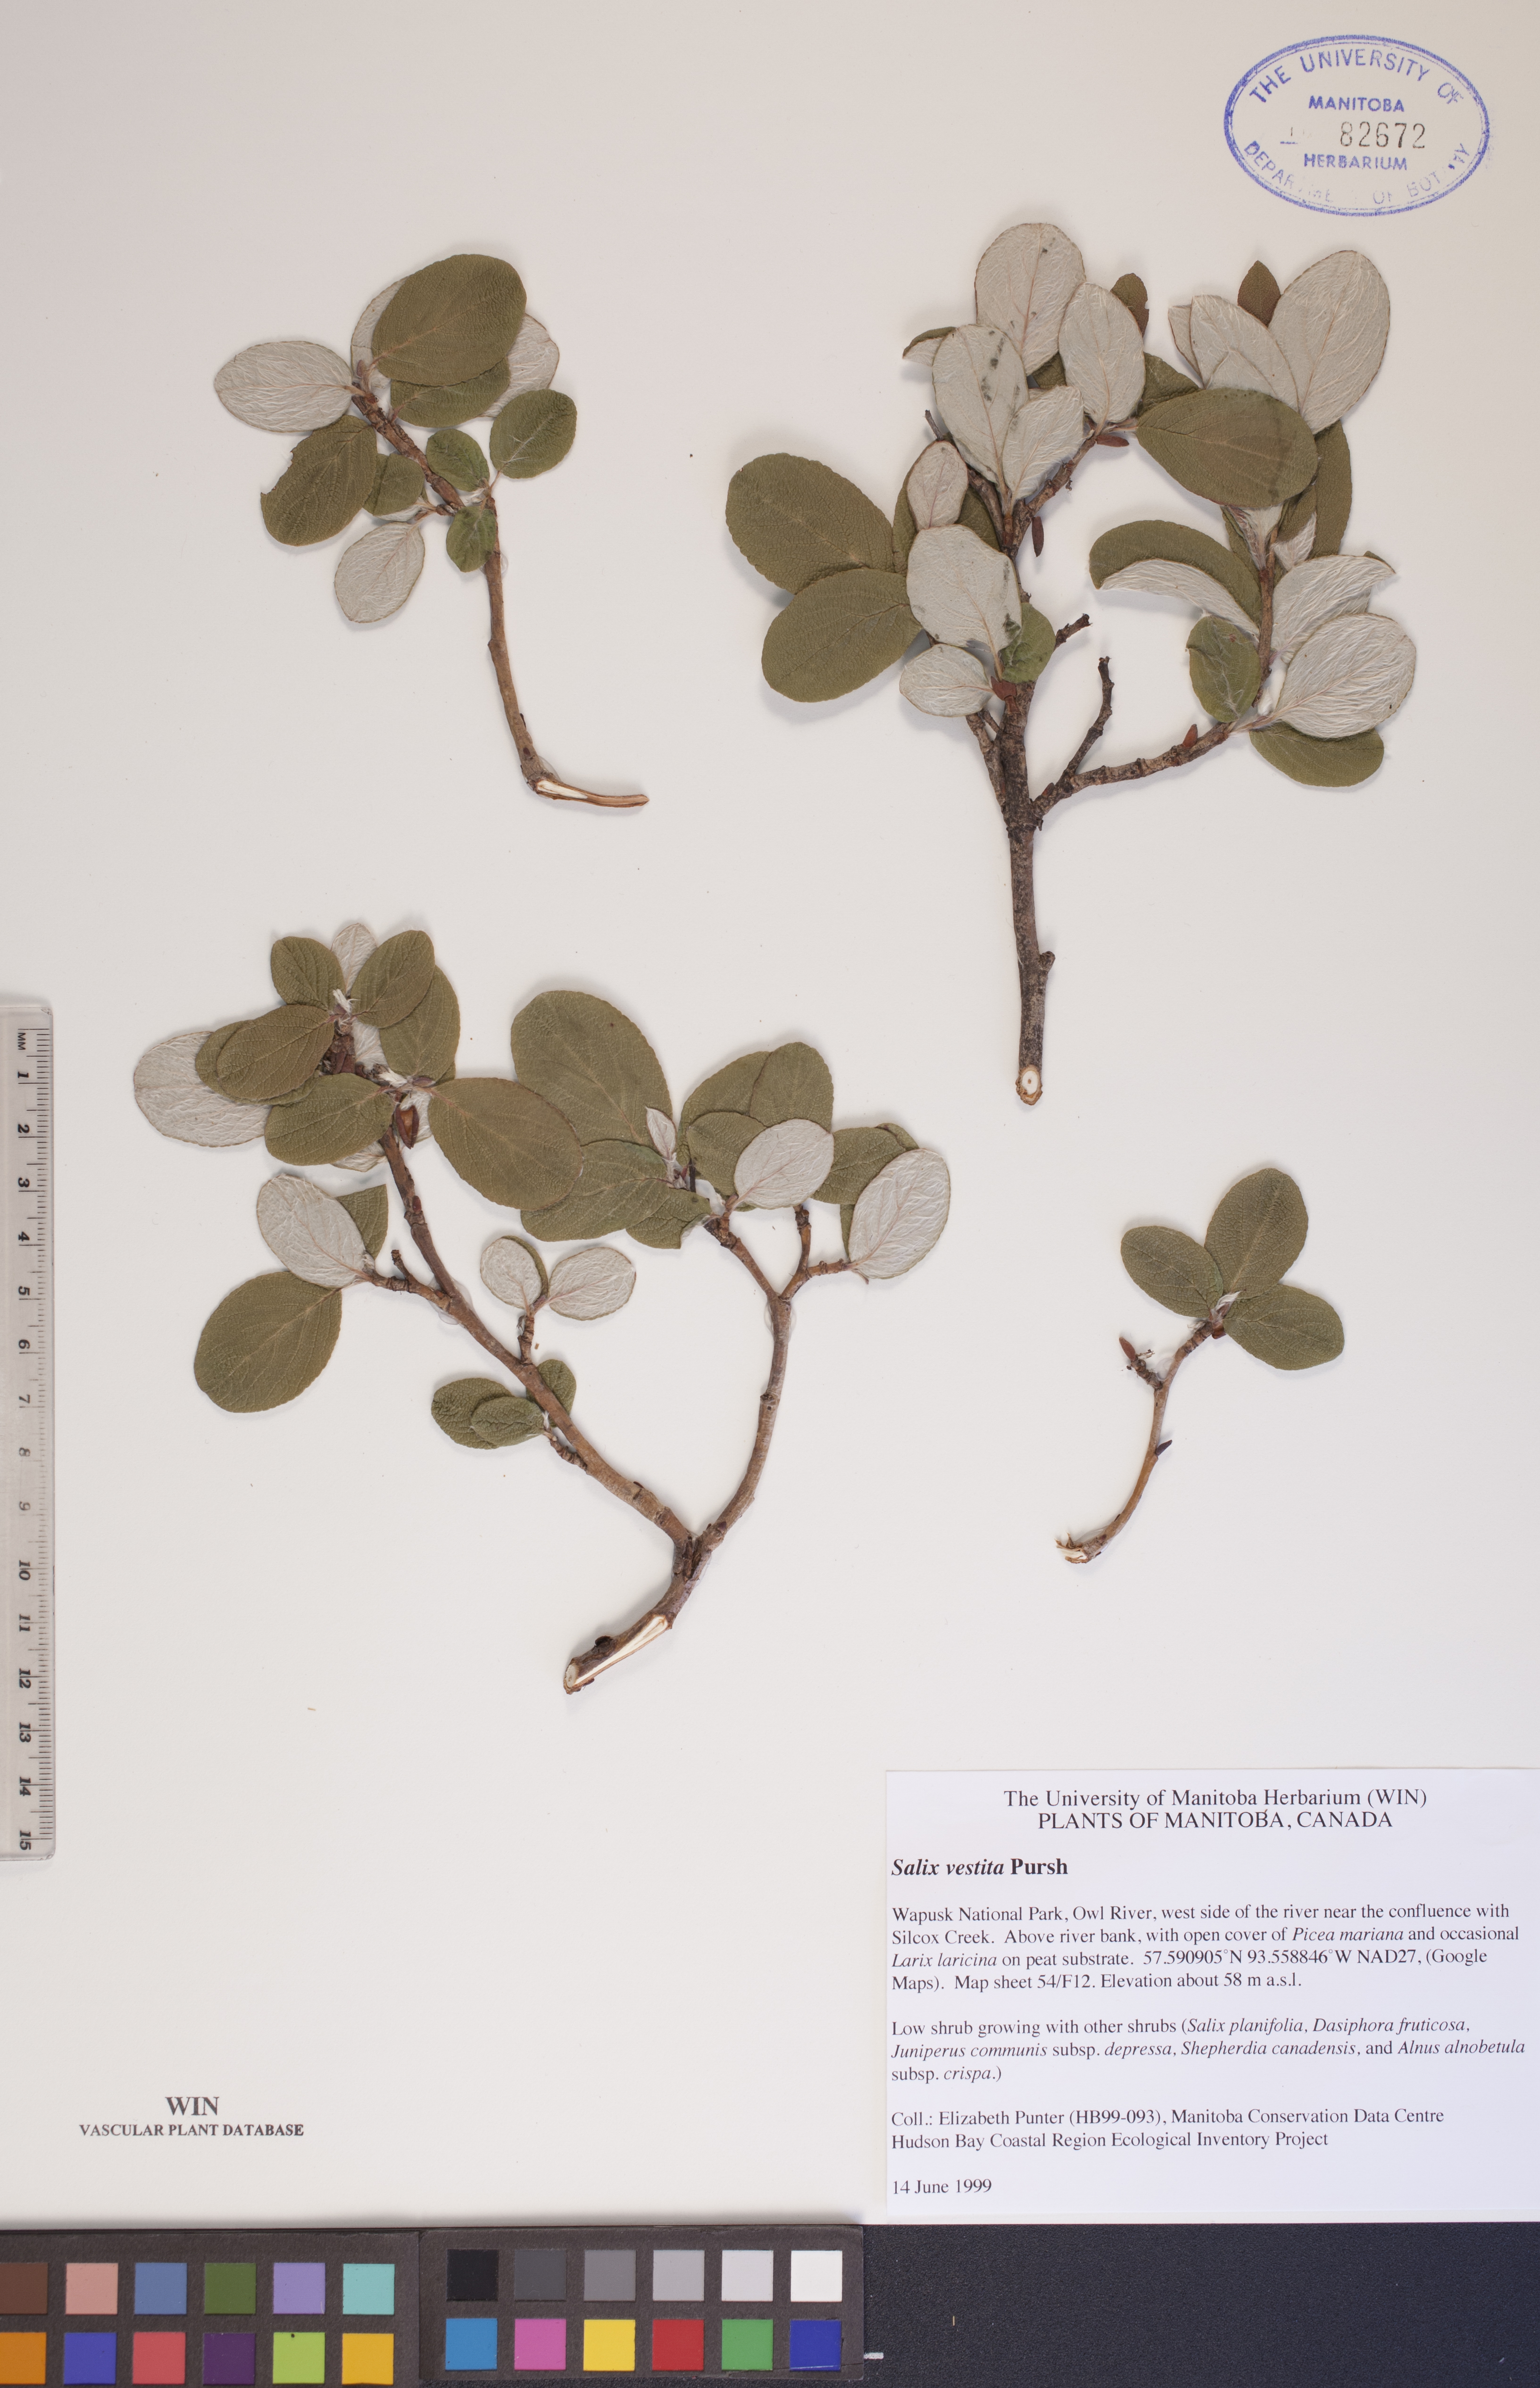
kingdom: Plantae
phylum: Tracheophyta
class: Magnoliopsida
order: Malpighiales
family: Salicaceae
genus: Salix
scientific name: Salix vestita
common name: Hairy willow
